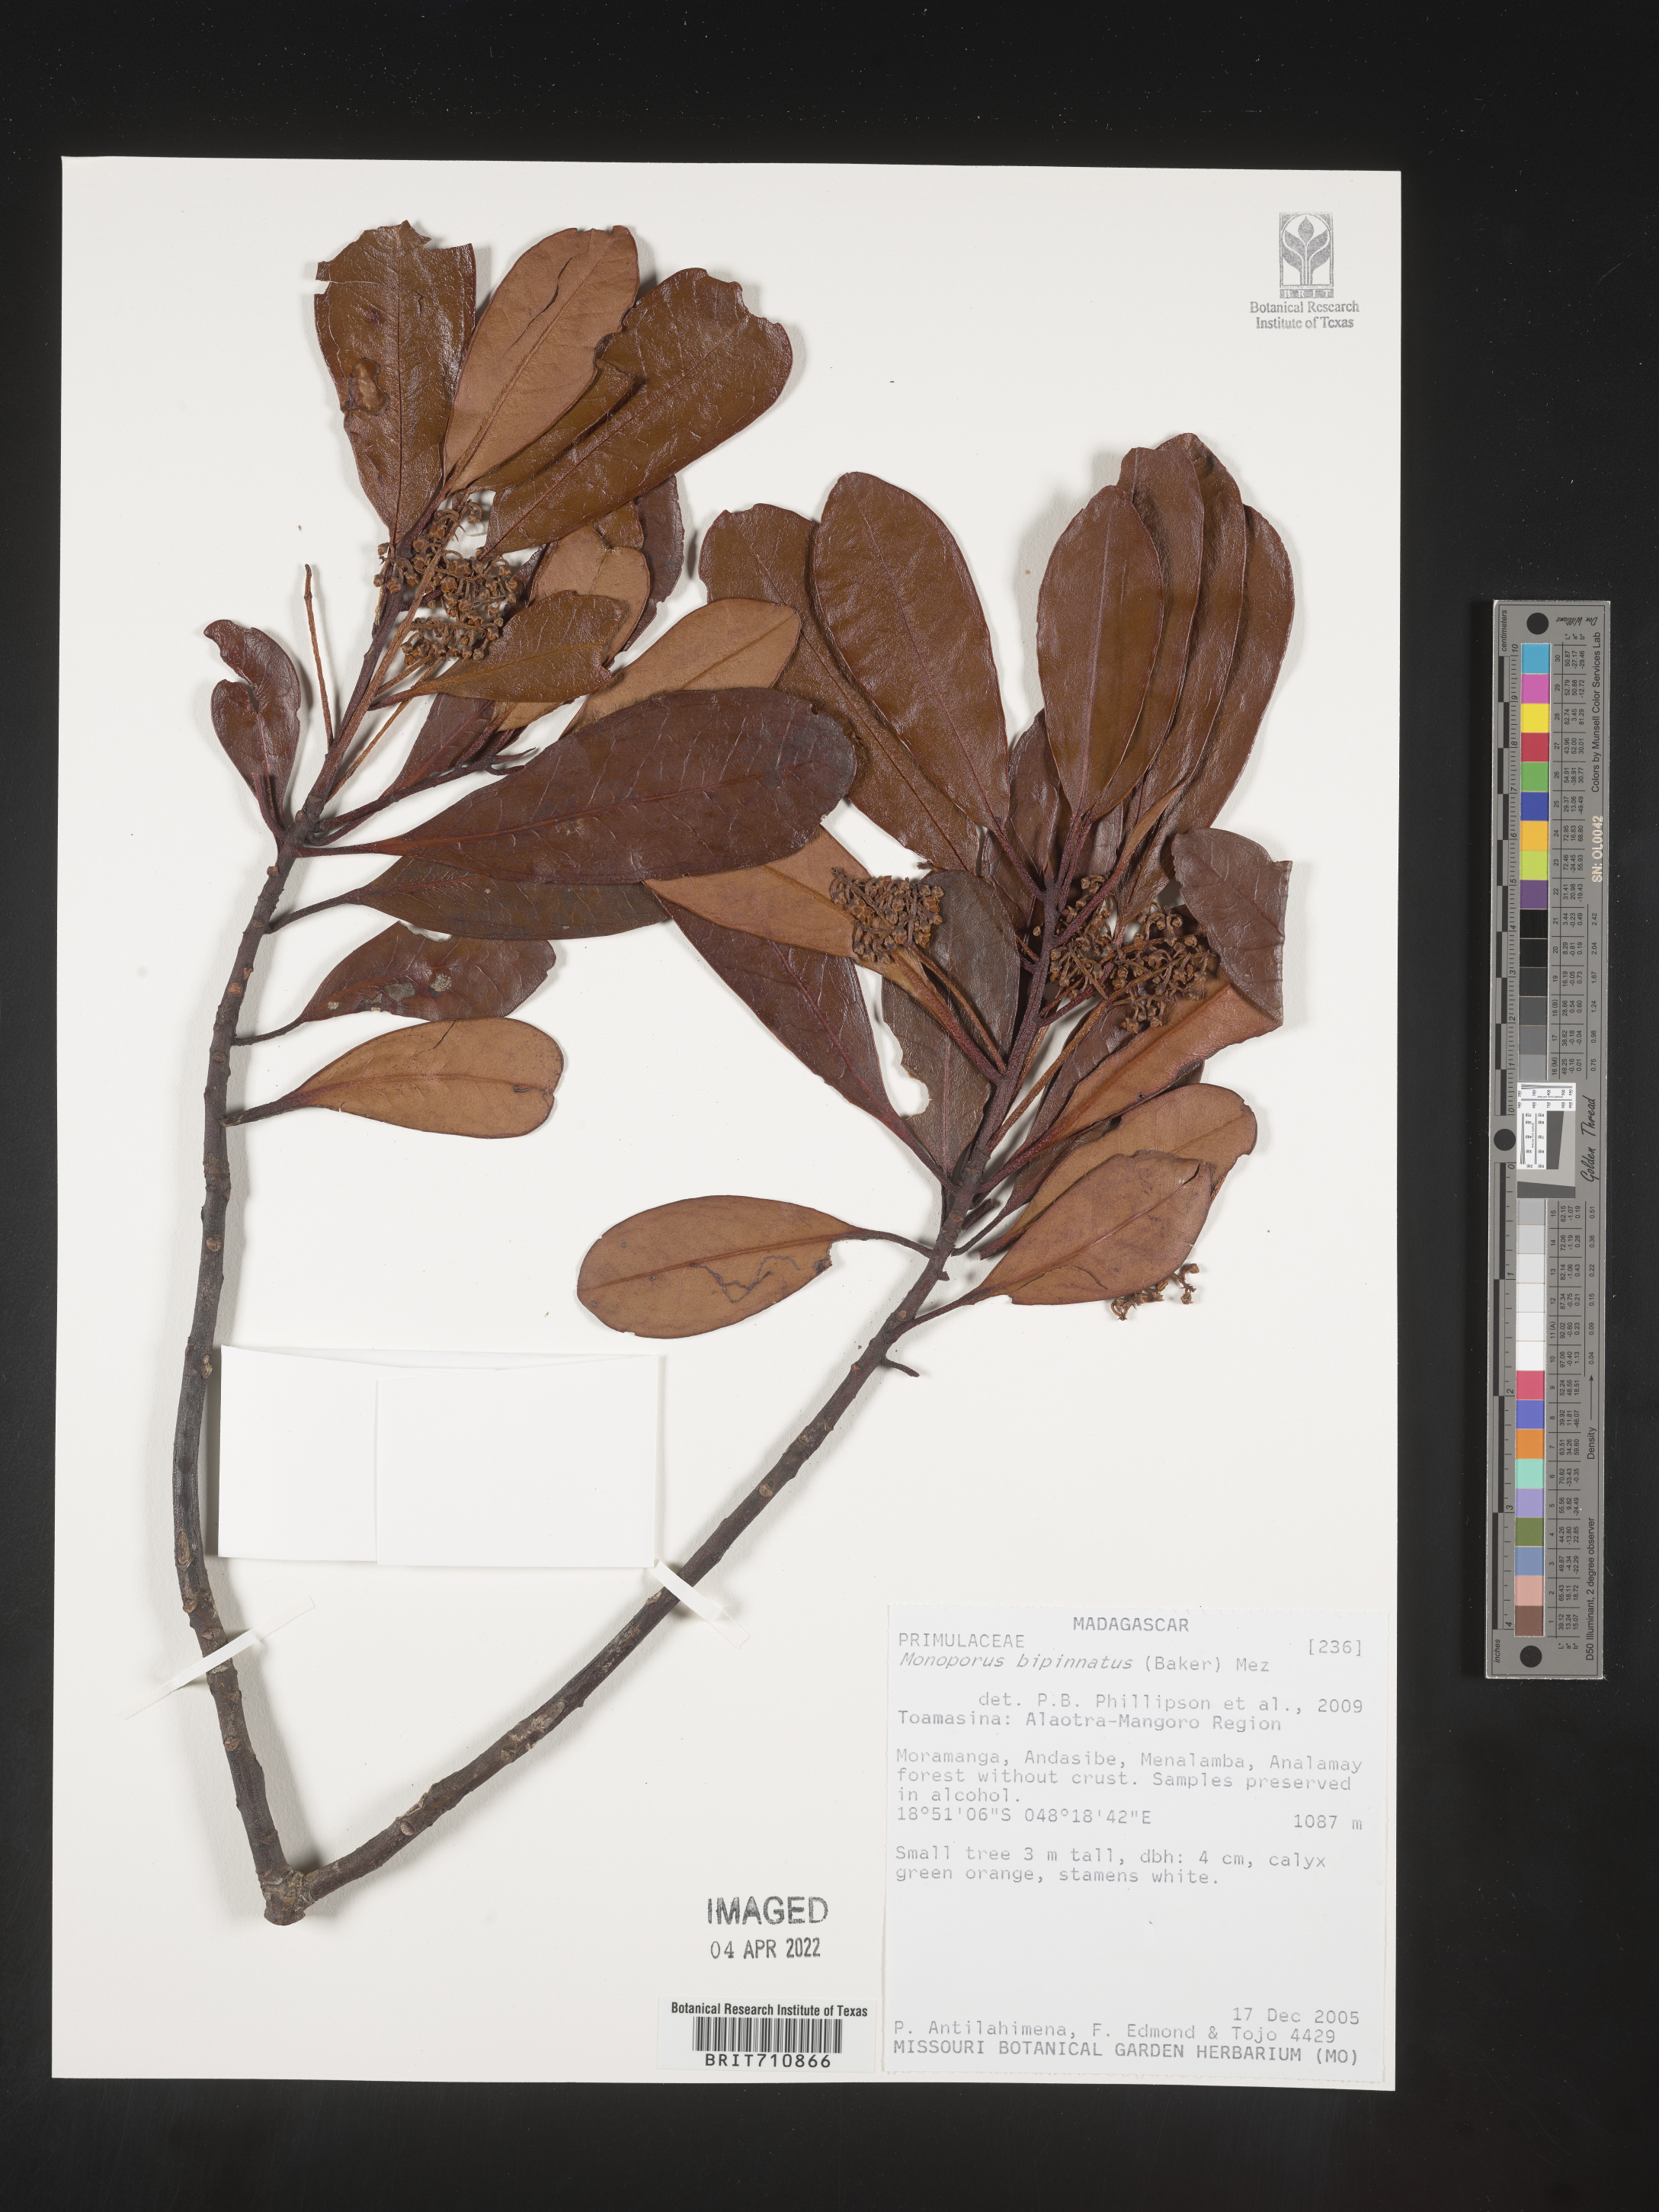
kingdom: Plantae
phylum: Tracheophyta
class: Magnoliopsida
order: Ericales
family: Primulaceae
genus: Monoporus
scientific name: Monoporus
